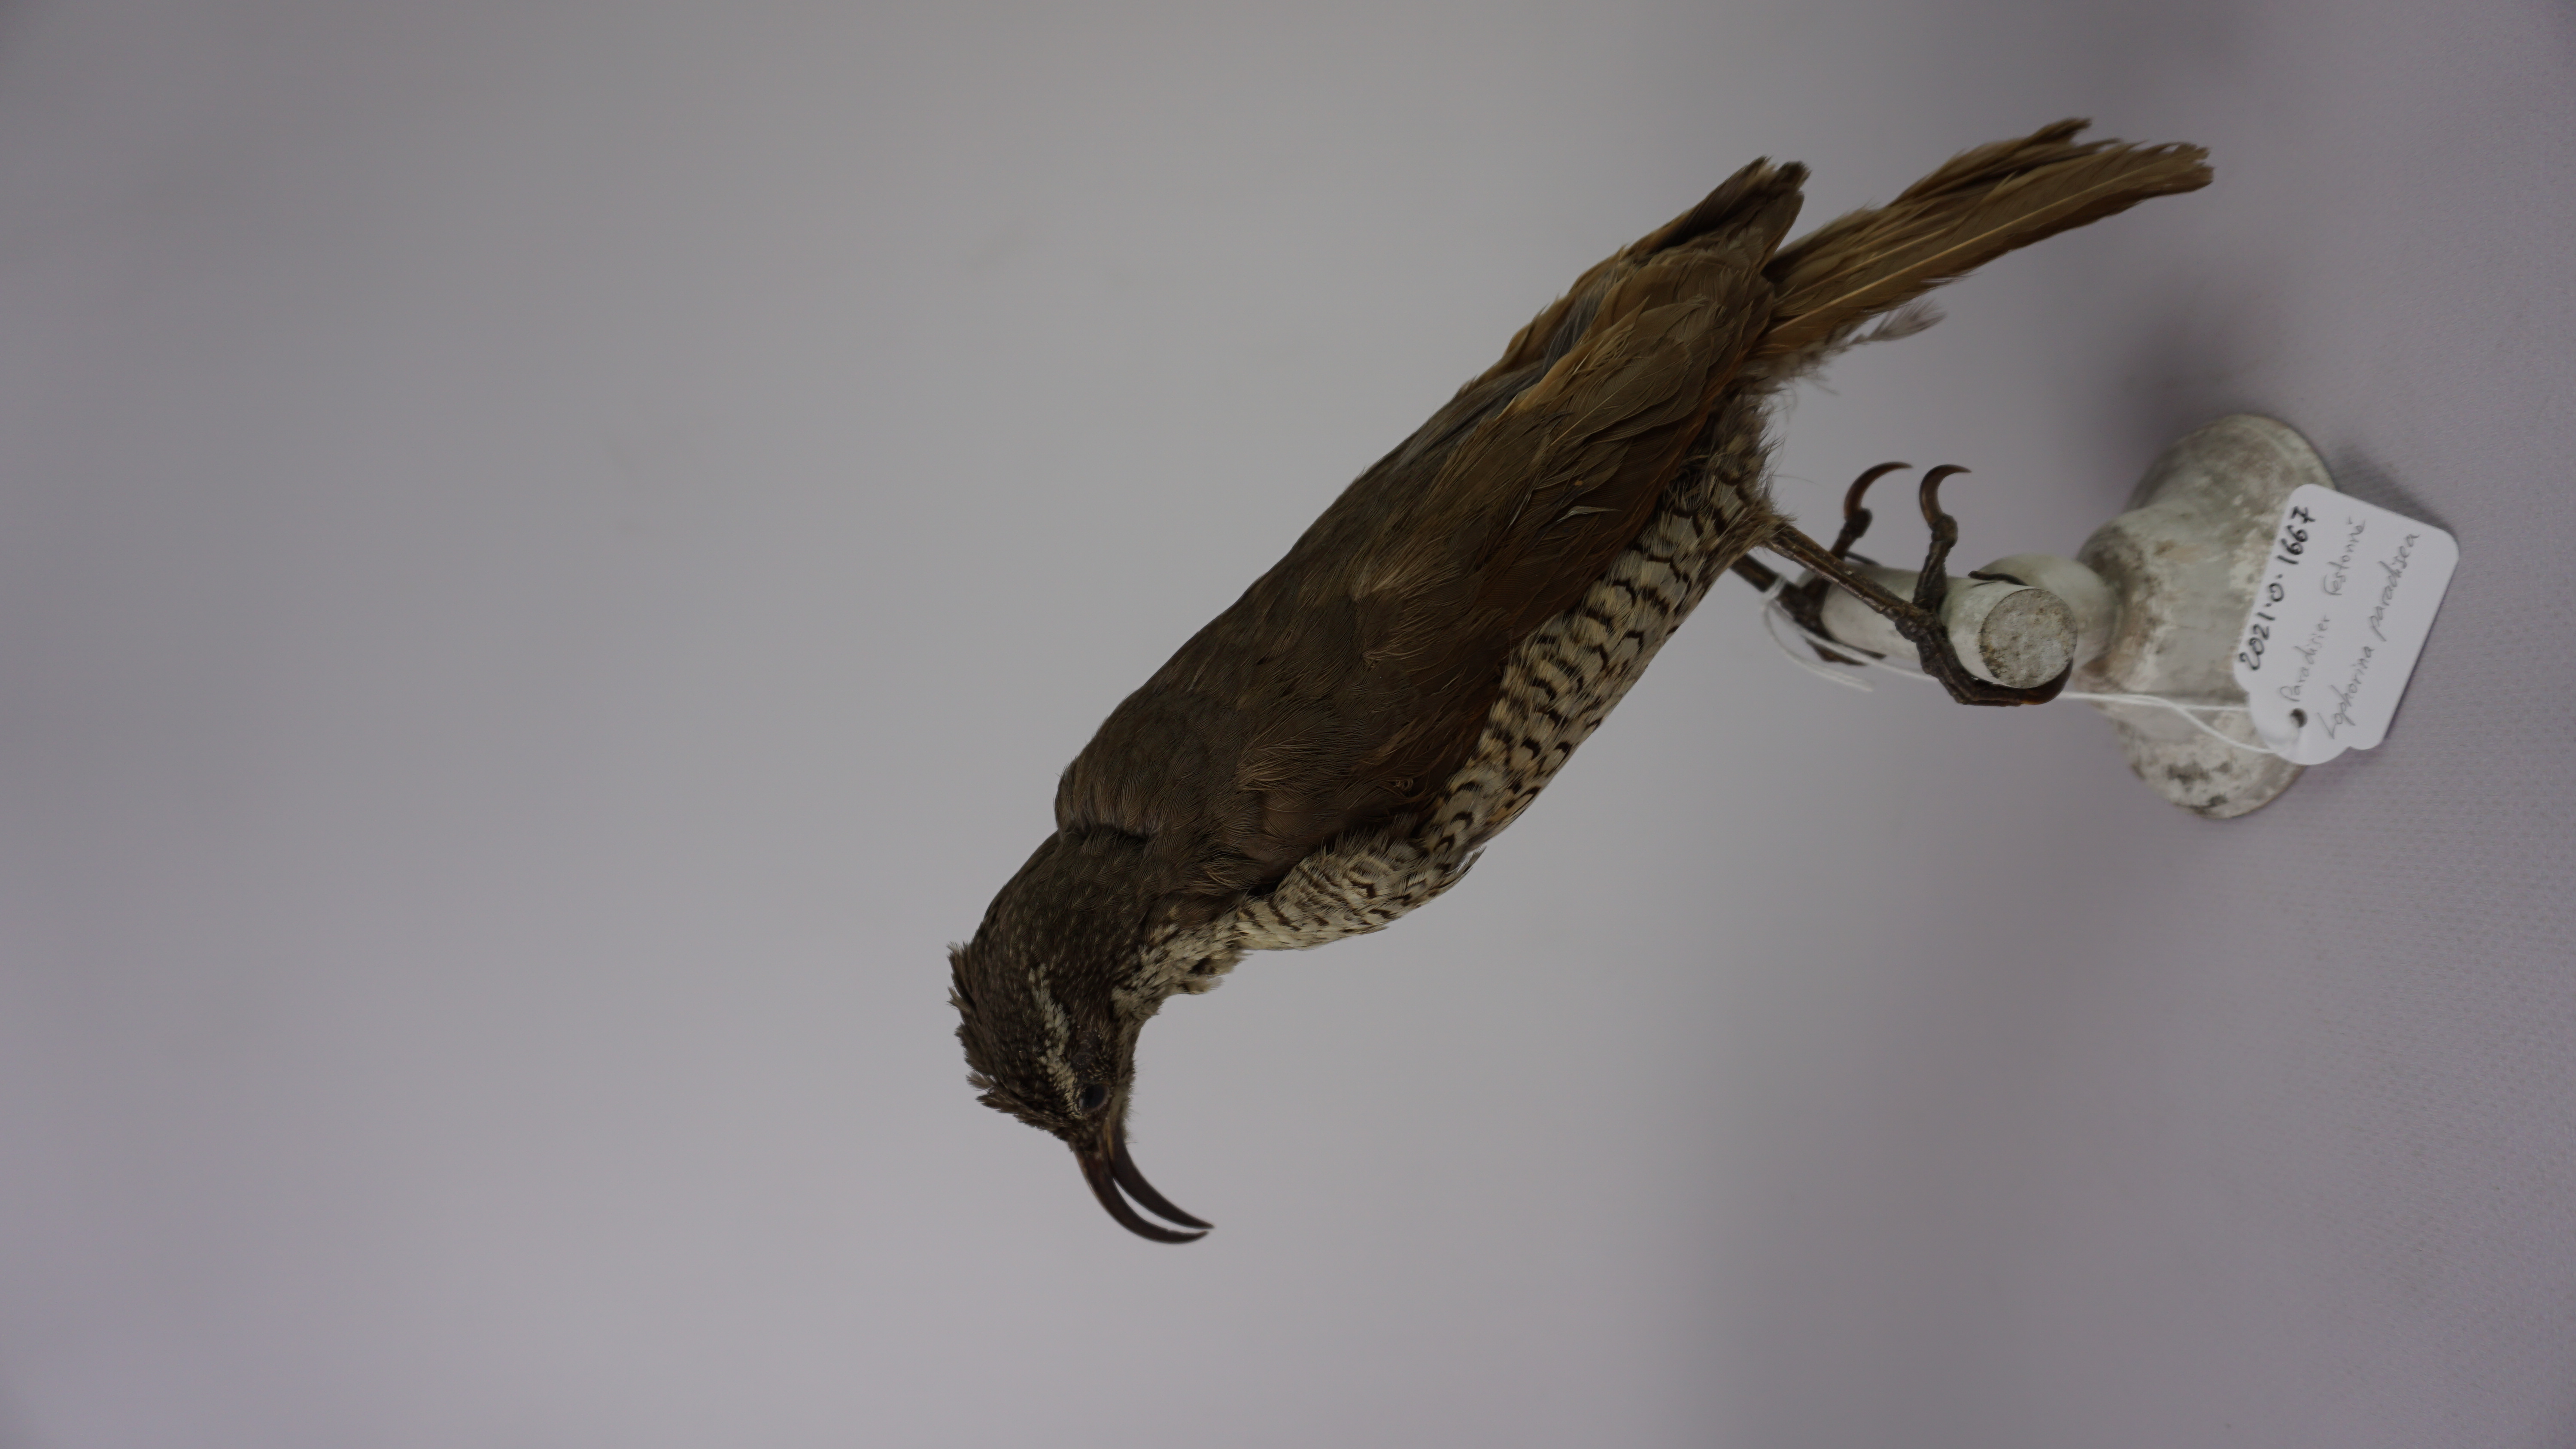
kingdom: Animalia
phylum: Chordata
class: Aves
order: Passeriformes
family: Paradisaeidae
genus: Ptiloris
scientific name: Ptiloris paradiseus
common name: Paradise riflebird
